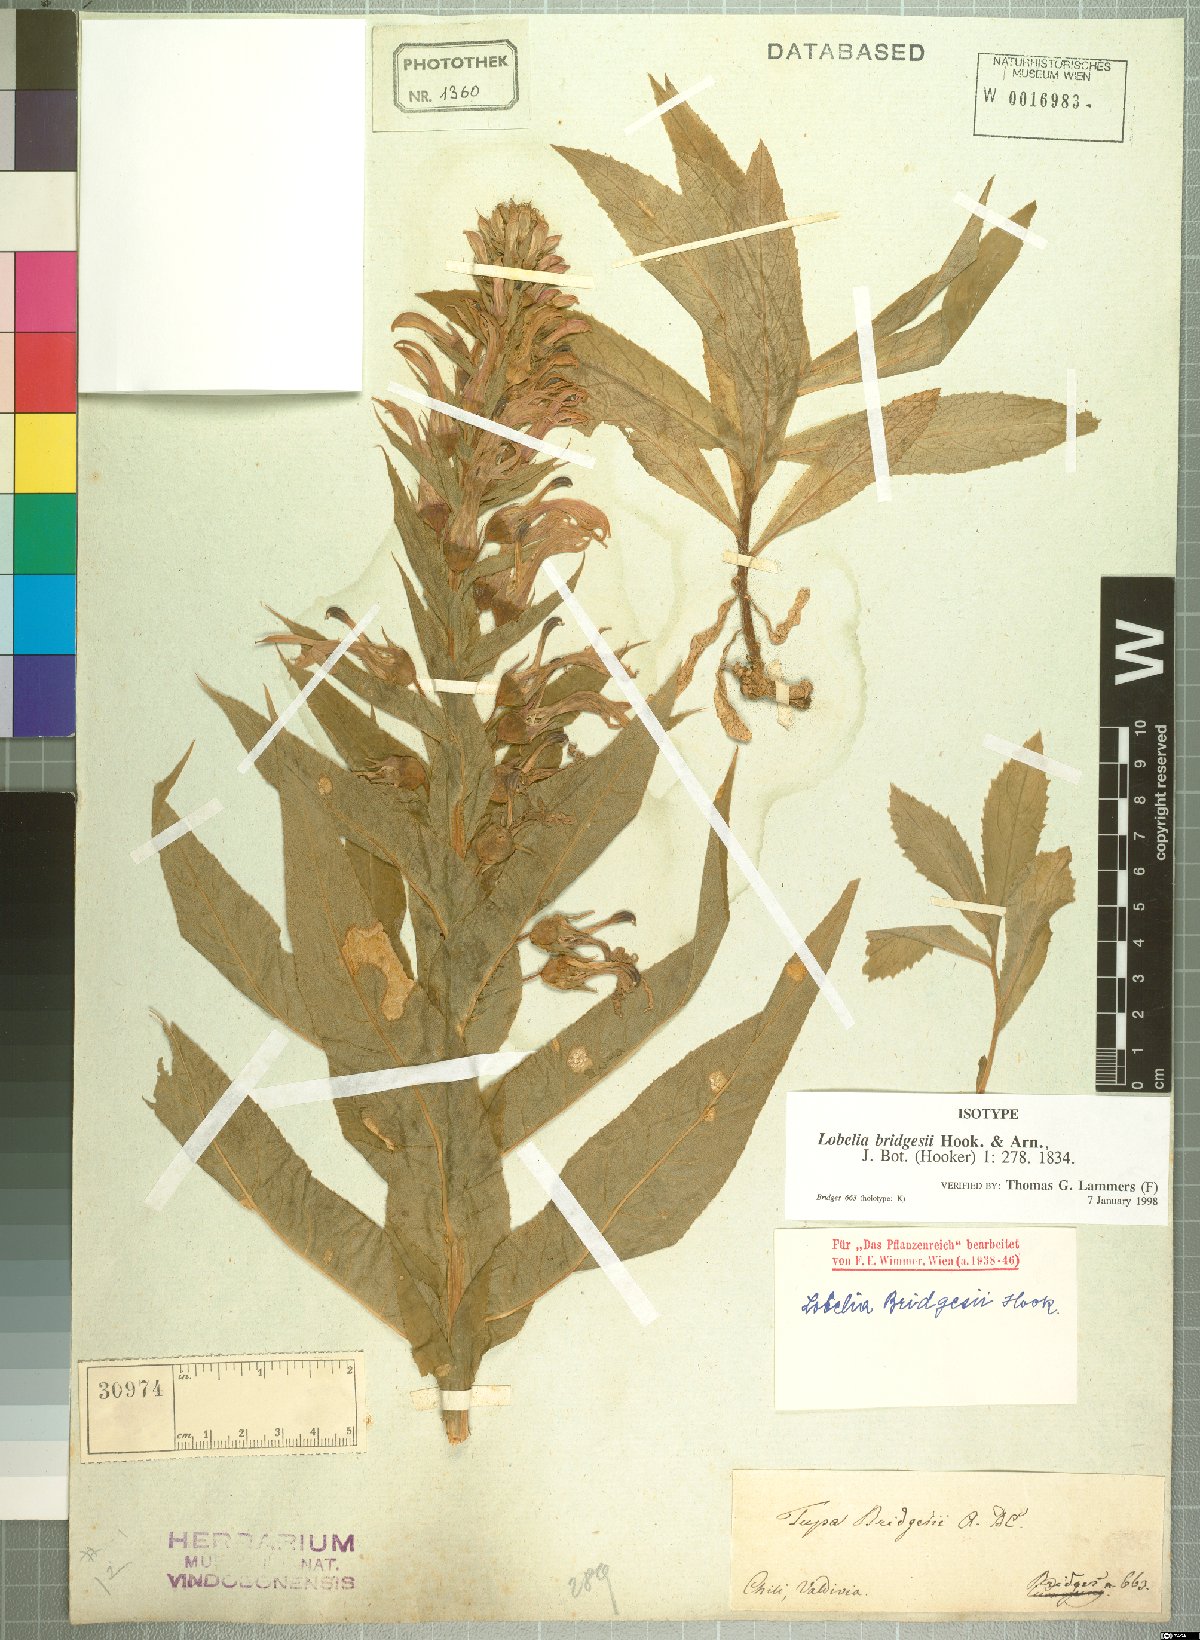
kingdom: Plantae
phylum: Tracheophyta
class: Magnoliopsida
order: Asterales
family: Campanulaceae
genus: Lobelia
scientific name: Lobelia bridgesii
